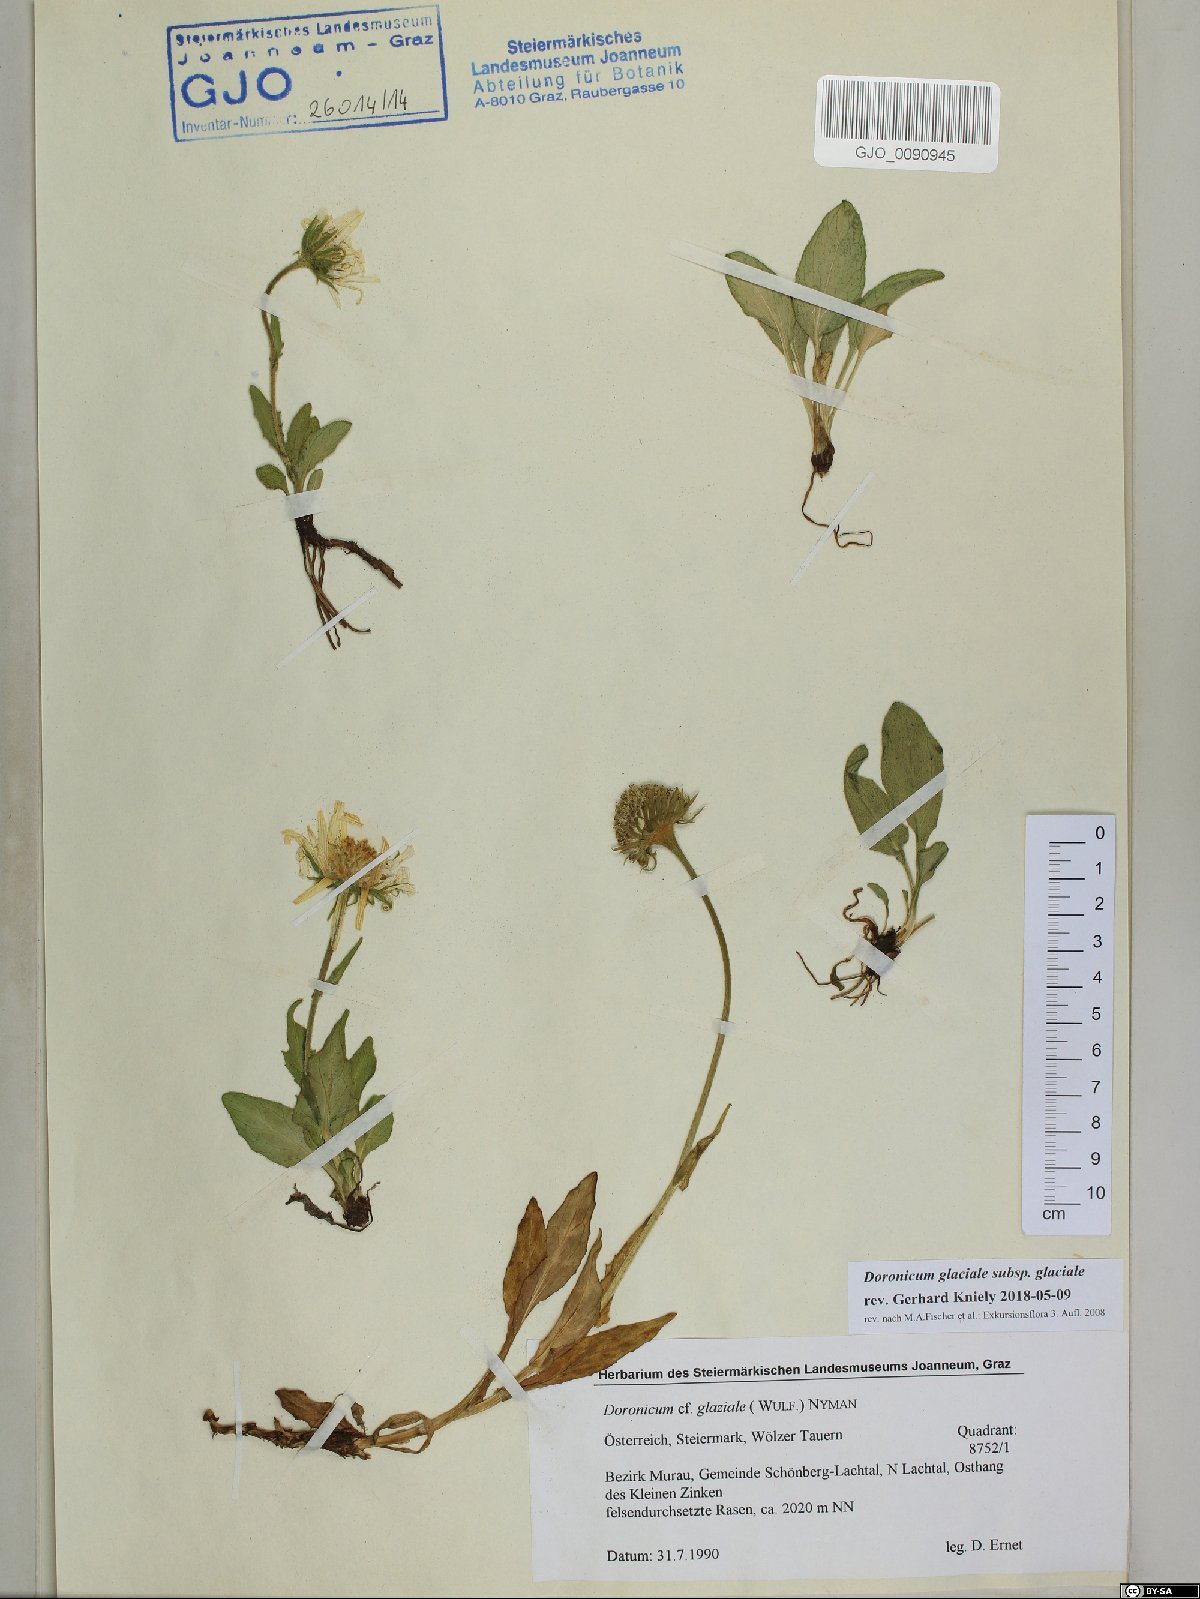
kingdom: Plantae
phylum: Tracheophyta
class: Magnoliopsida
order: Asterales
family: Asteraceae
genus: Doronicum
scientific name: Doronicum glaciale
